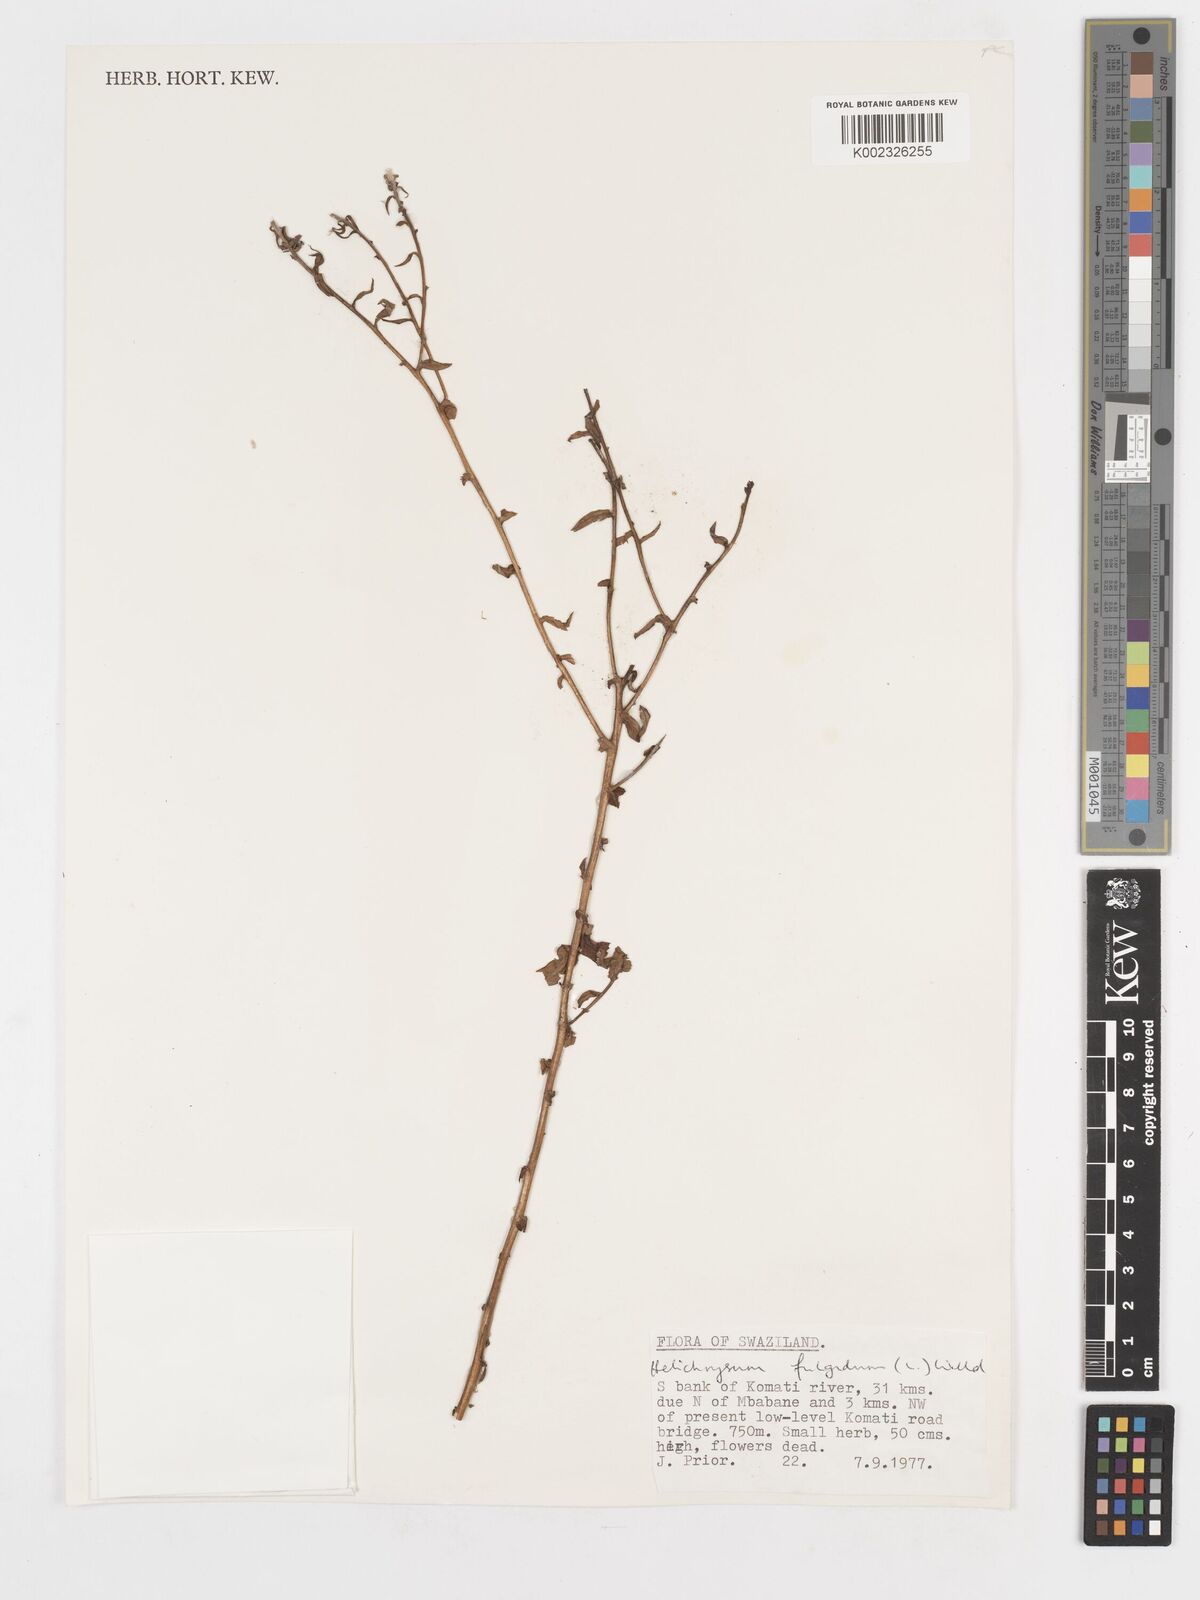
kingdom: Plantae
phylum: Tracheophyta
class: Magnoliopsida
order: Asterales
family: Asteraceae
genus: Helichrysum
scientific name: Helichrysum aureum
